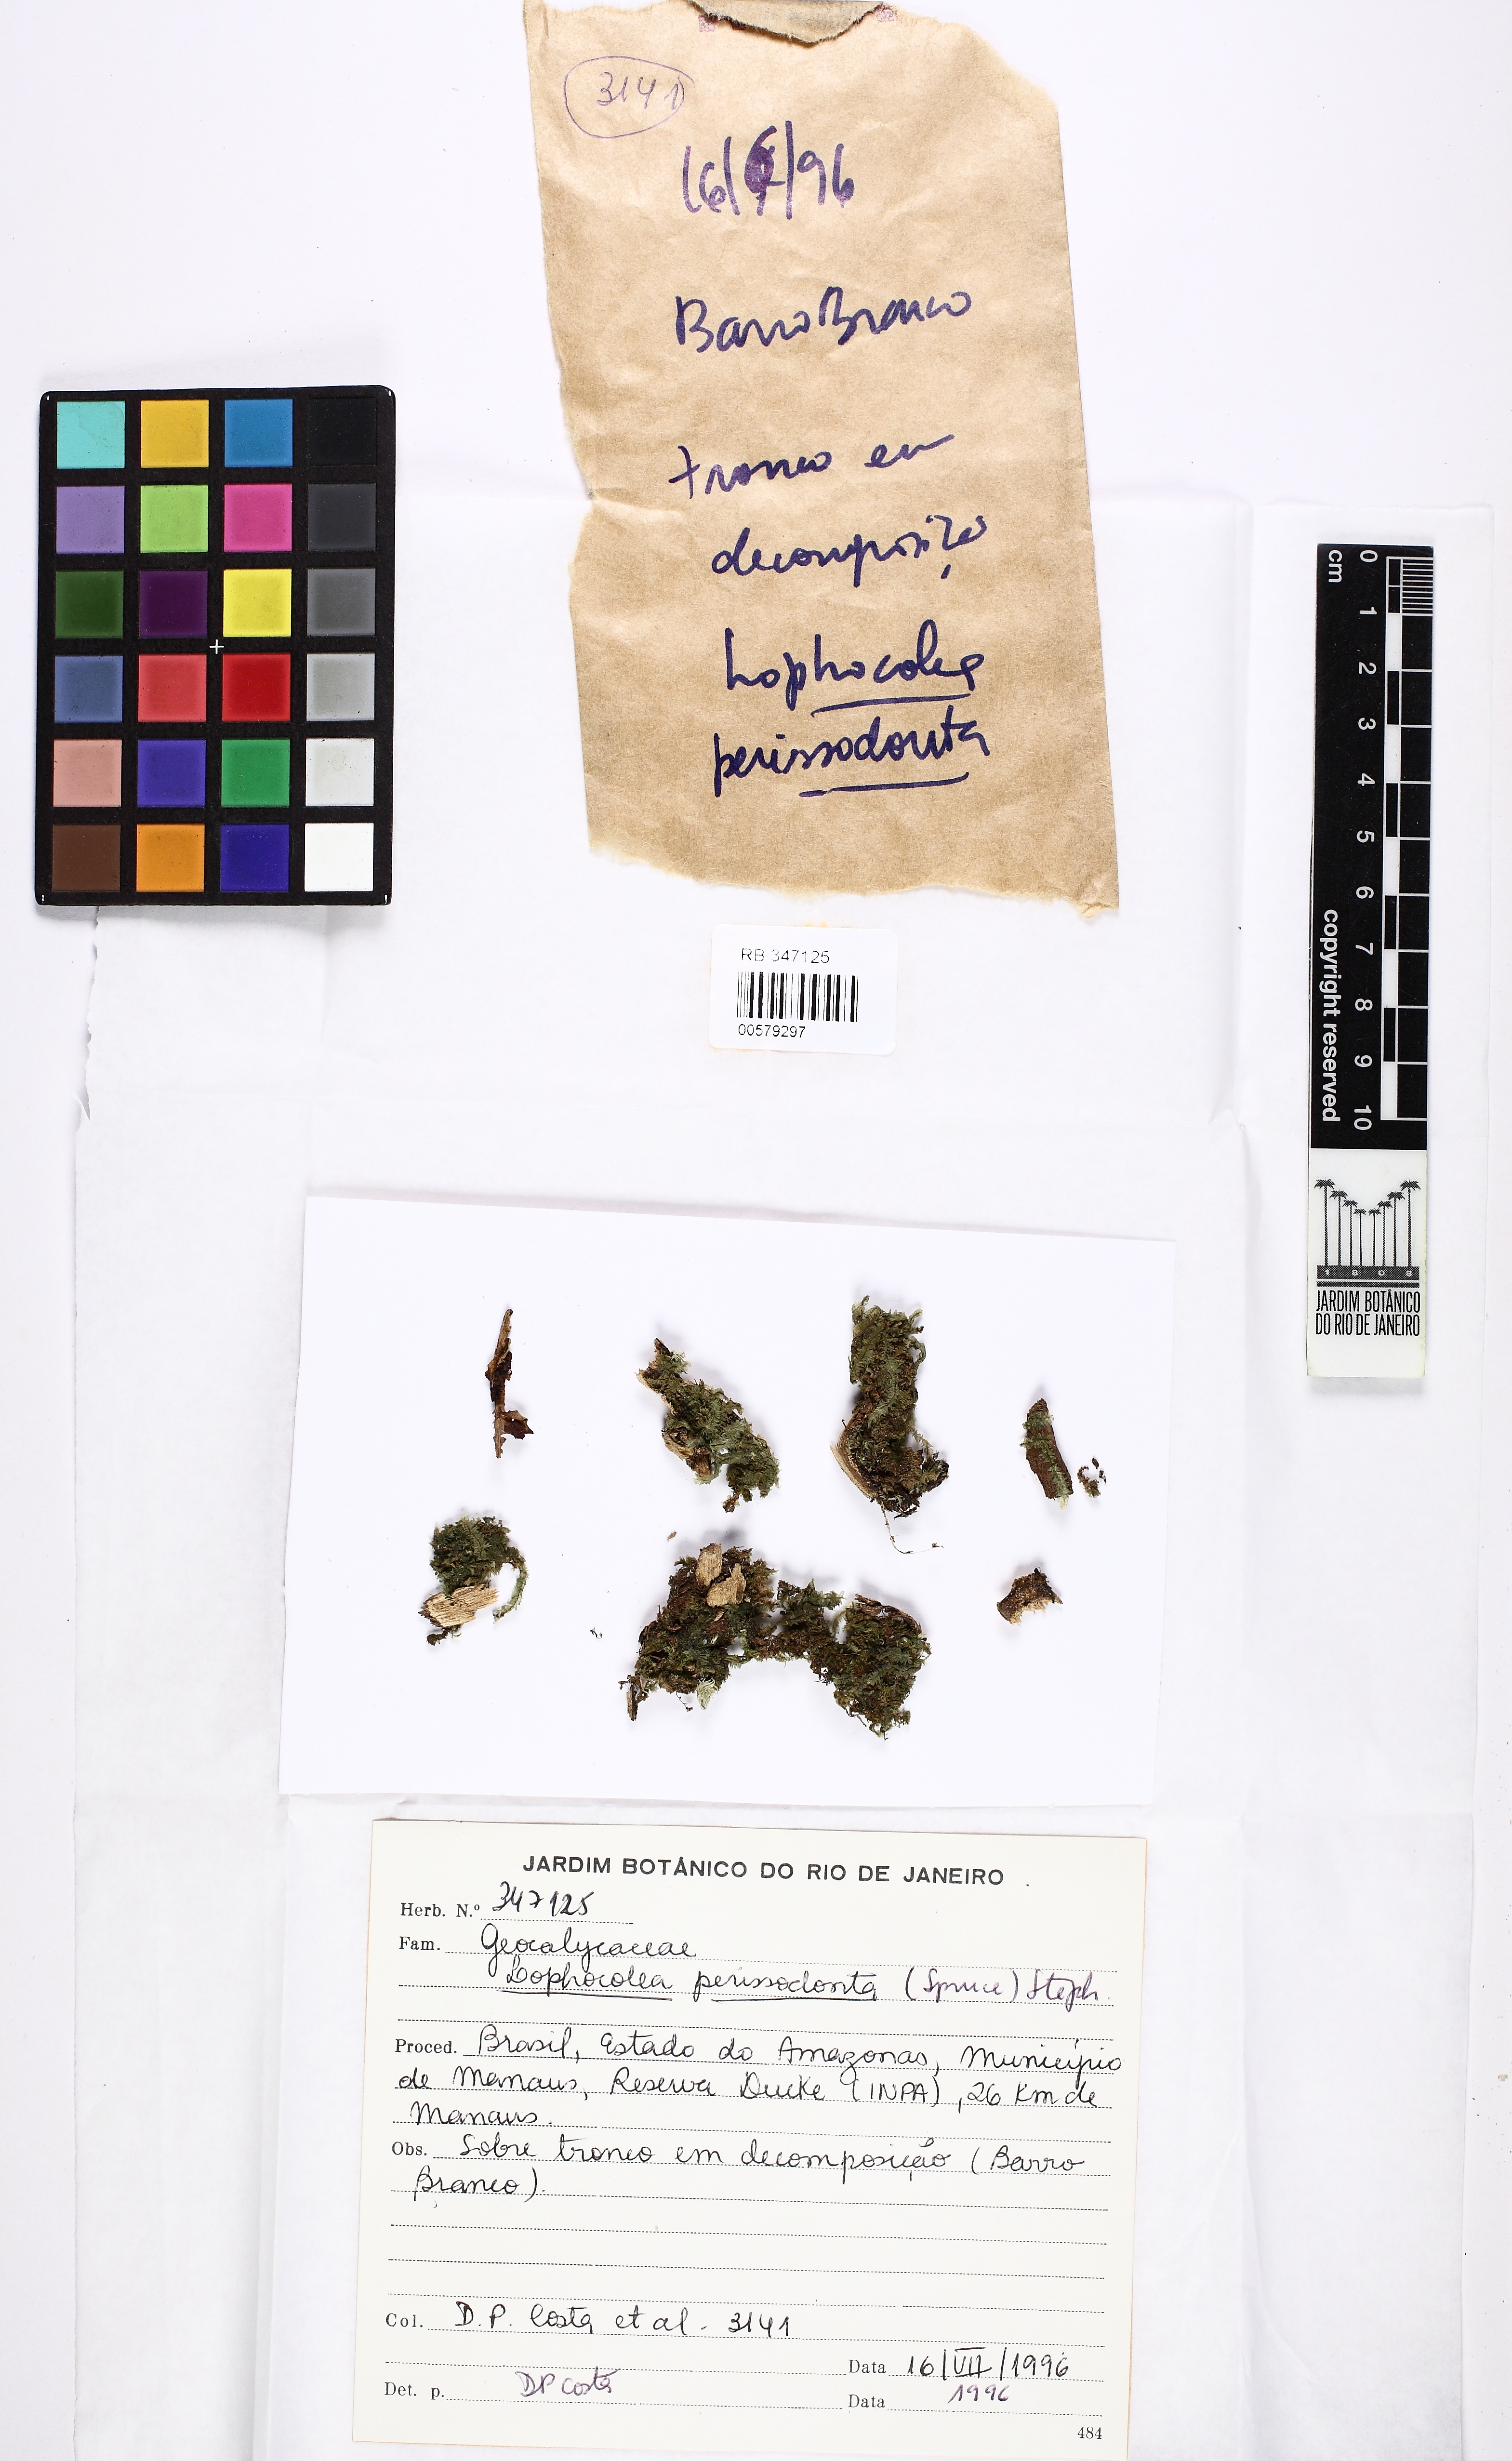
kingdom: Plantae
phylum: Marchantiophyta
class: Jungermanniopsida
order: Jungermanniales
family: Lophocoleaceae
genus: Cryptolophocolea
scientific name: Cryptolophocolea martiana
